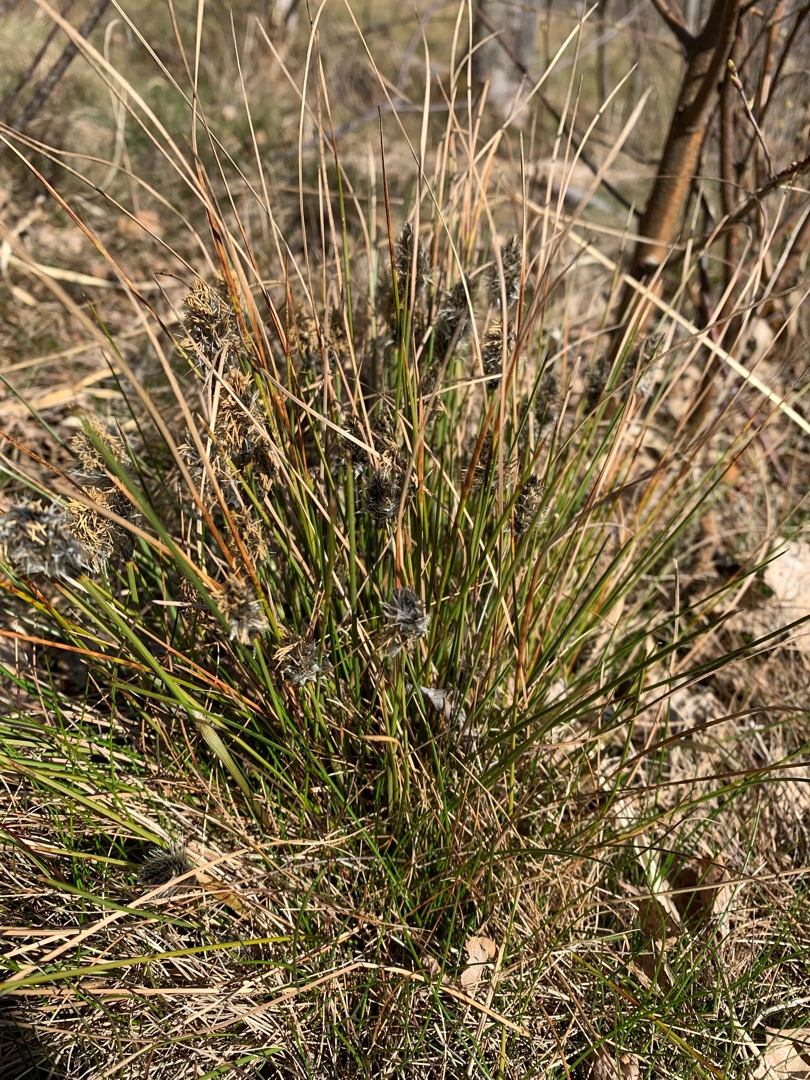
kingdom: Plantae
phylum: Tracheophyta
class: Liliopsida
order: Poales
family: Cyperaceae
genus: Eriophorum
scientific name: Eriophorum vaginatum
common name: Tue-kæruld
